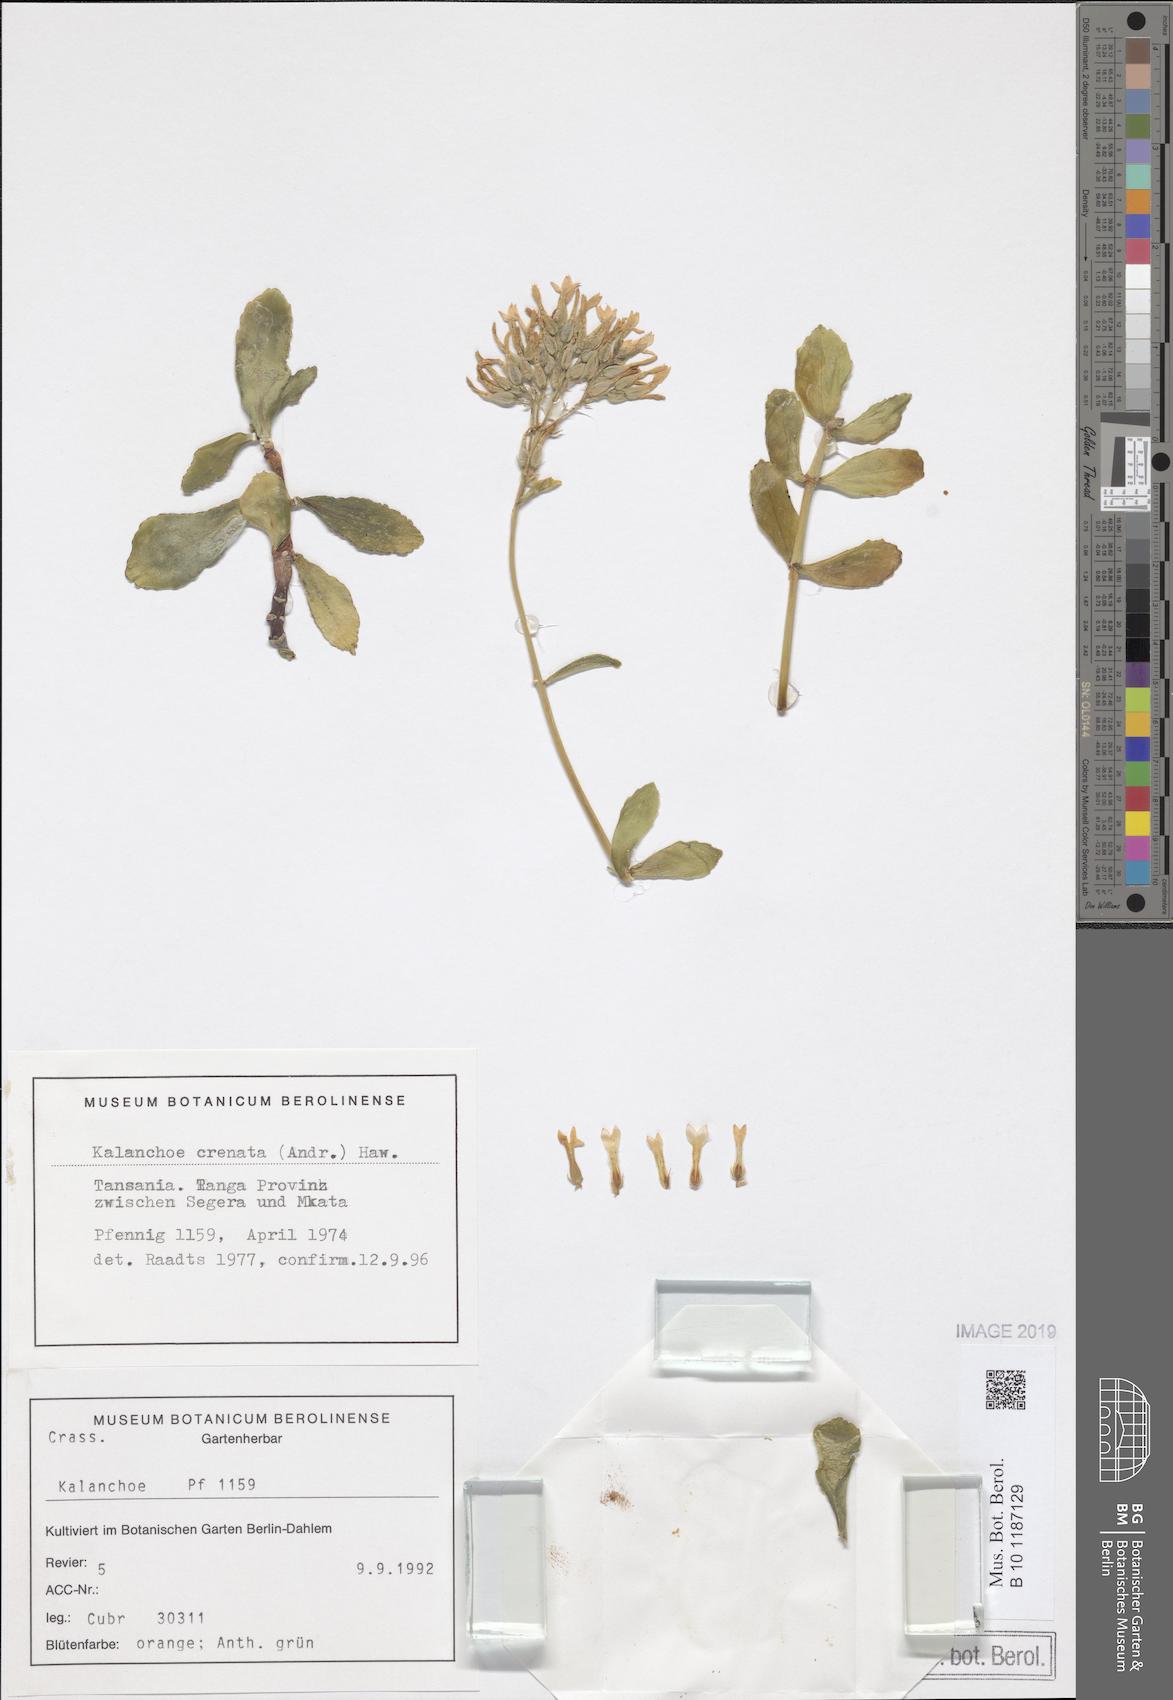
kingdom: Plantae
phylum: Tracheophyta
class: Magnoliopsida
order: Saxifragales
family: Crassulaceae
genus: Kalanchoe
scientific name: Kalanchoe crenata
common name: Neverdie
